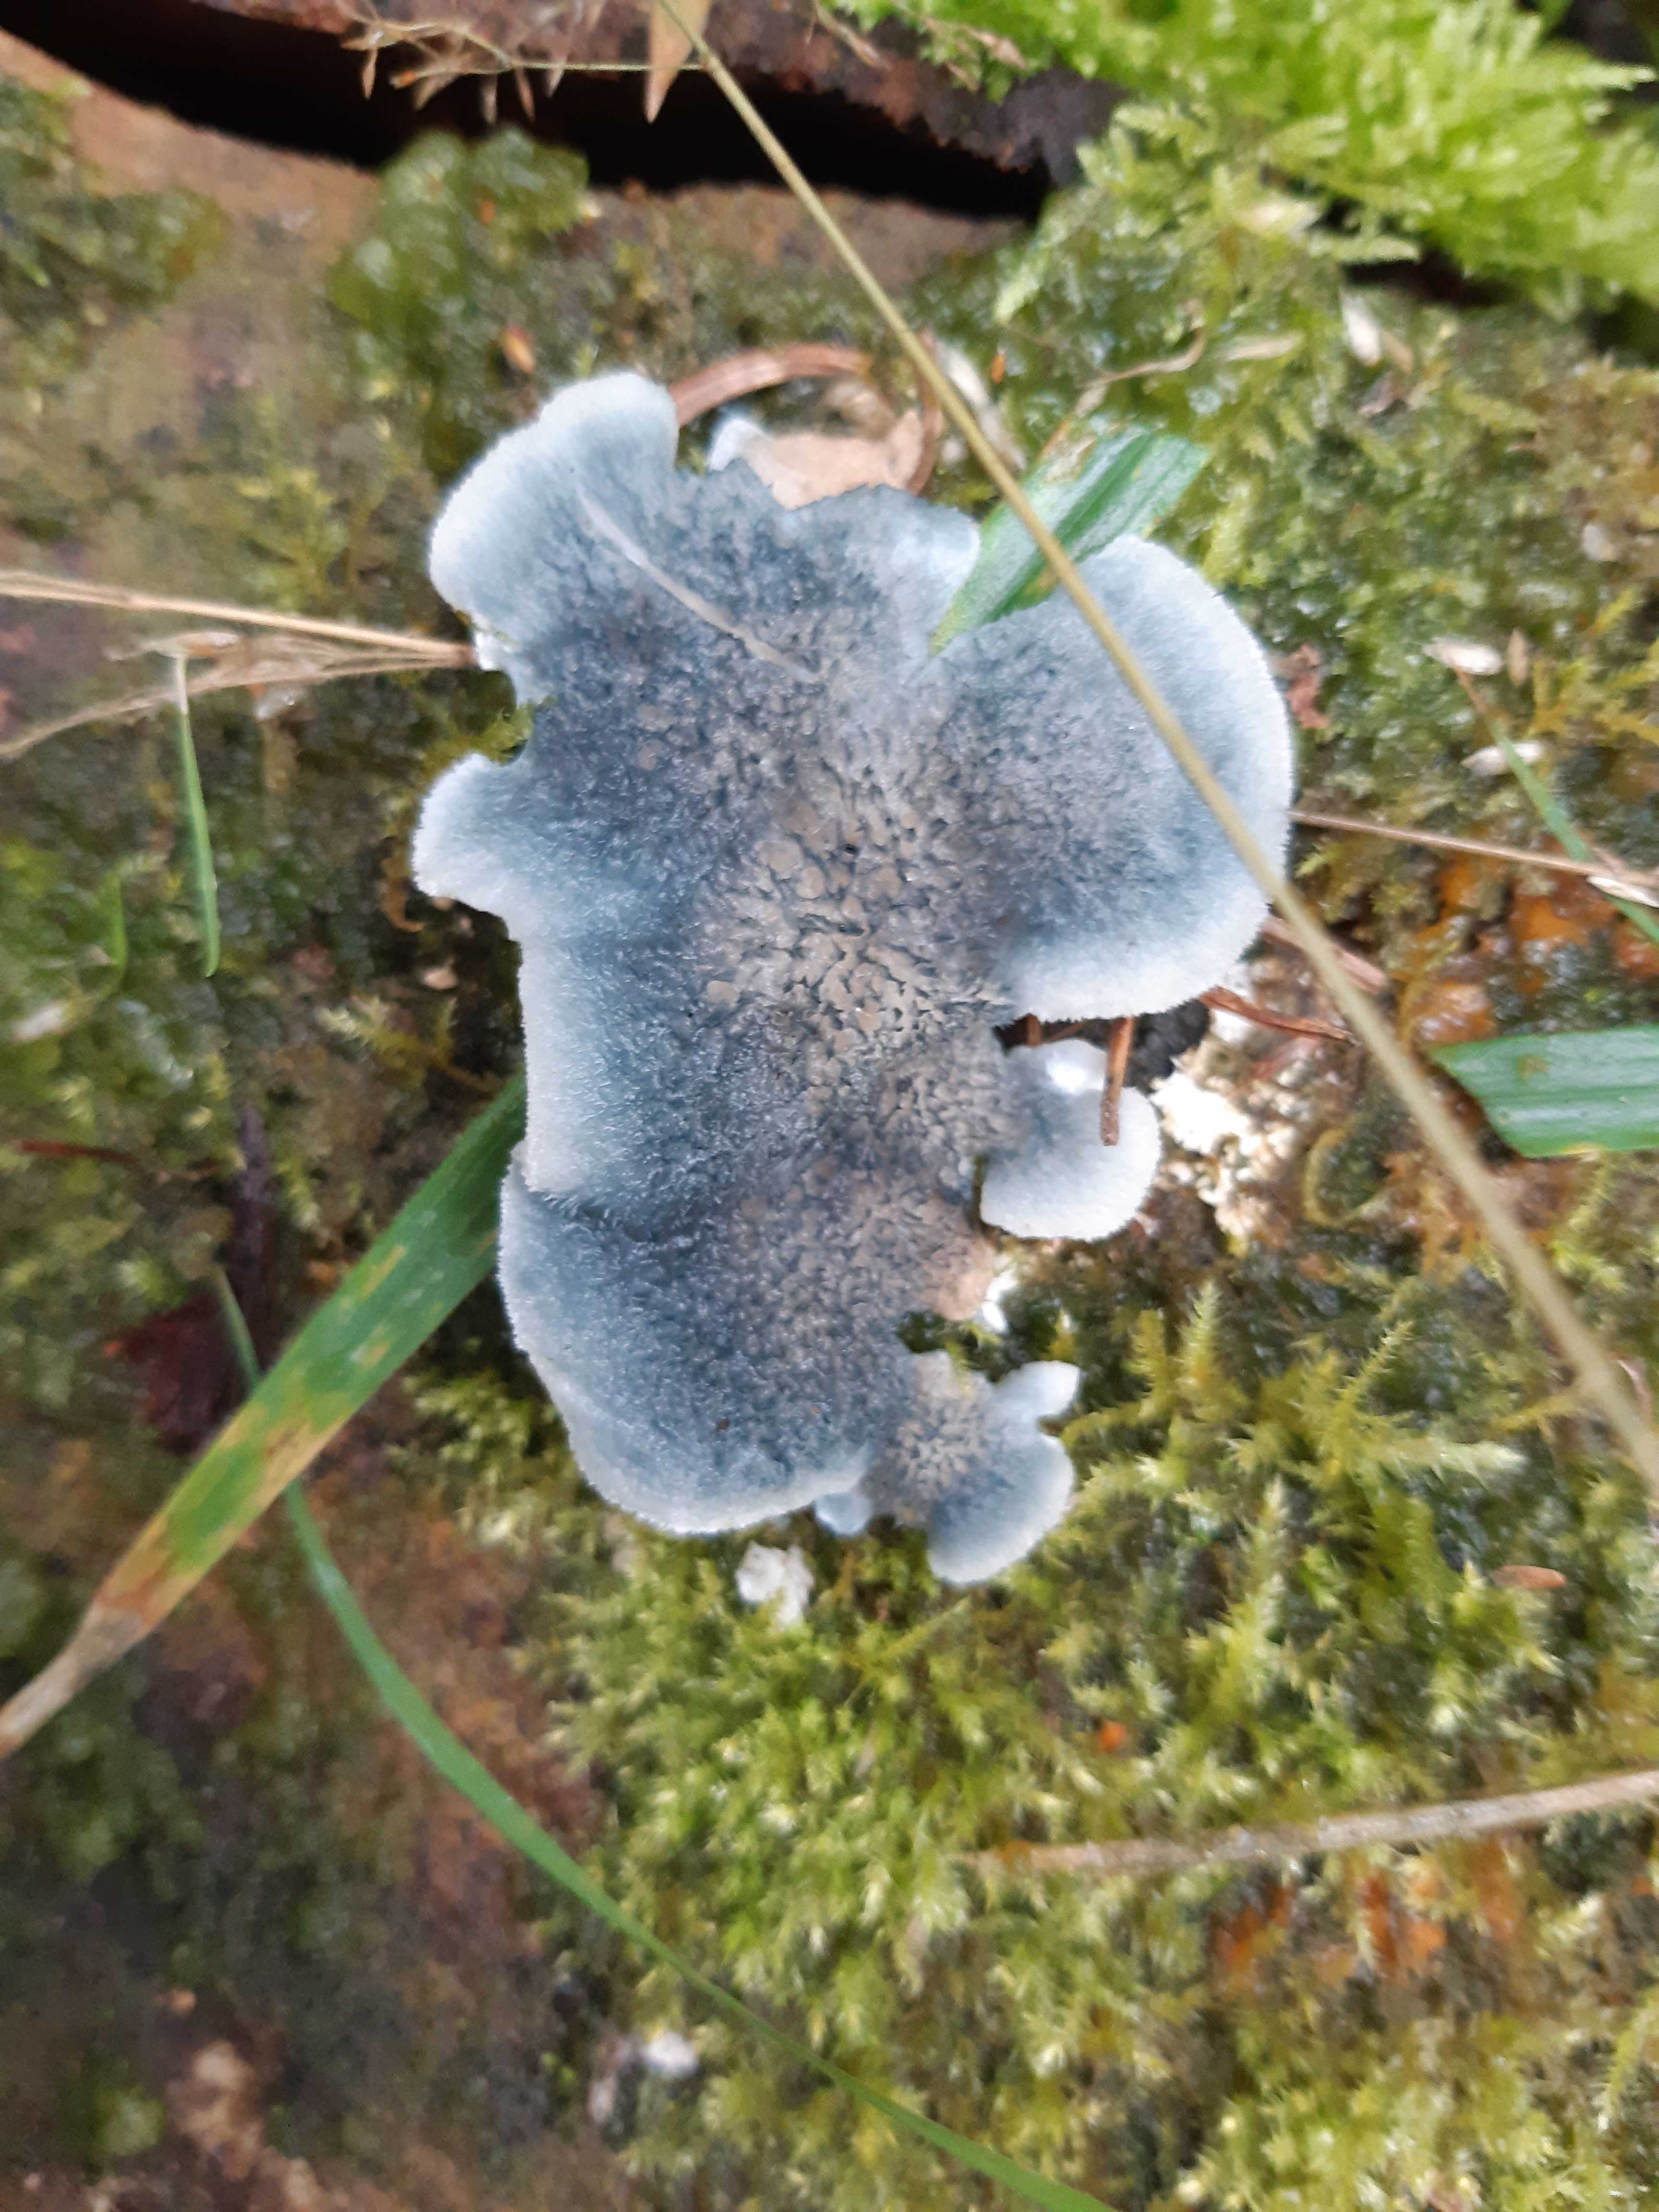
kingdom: Fungi
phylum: Basidiomycota
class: Agaricomycetes
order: Polyporales
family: Polyporaceae
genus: Cyanosporus
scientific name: Cyanosporus caesius
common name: blålig kødporesvamp
